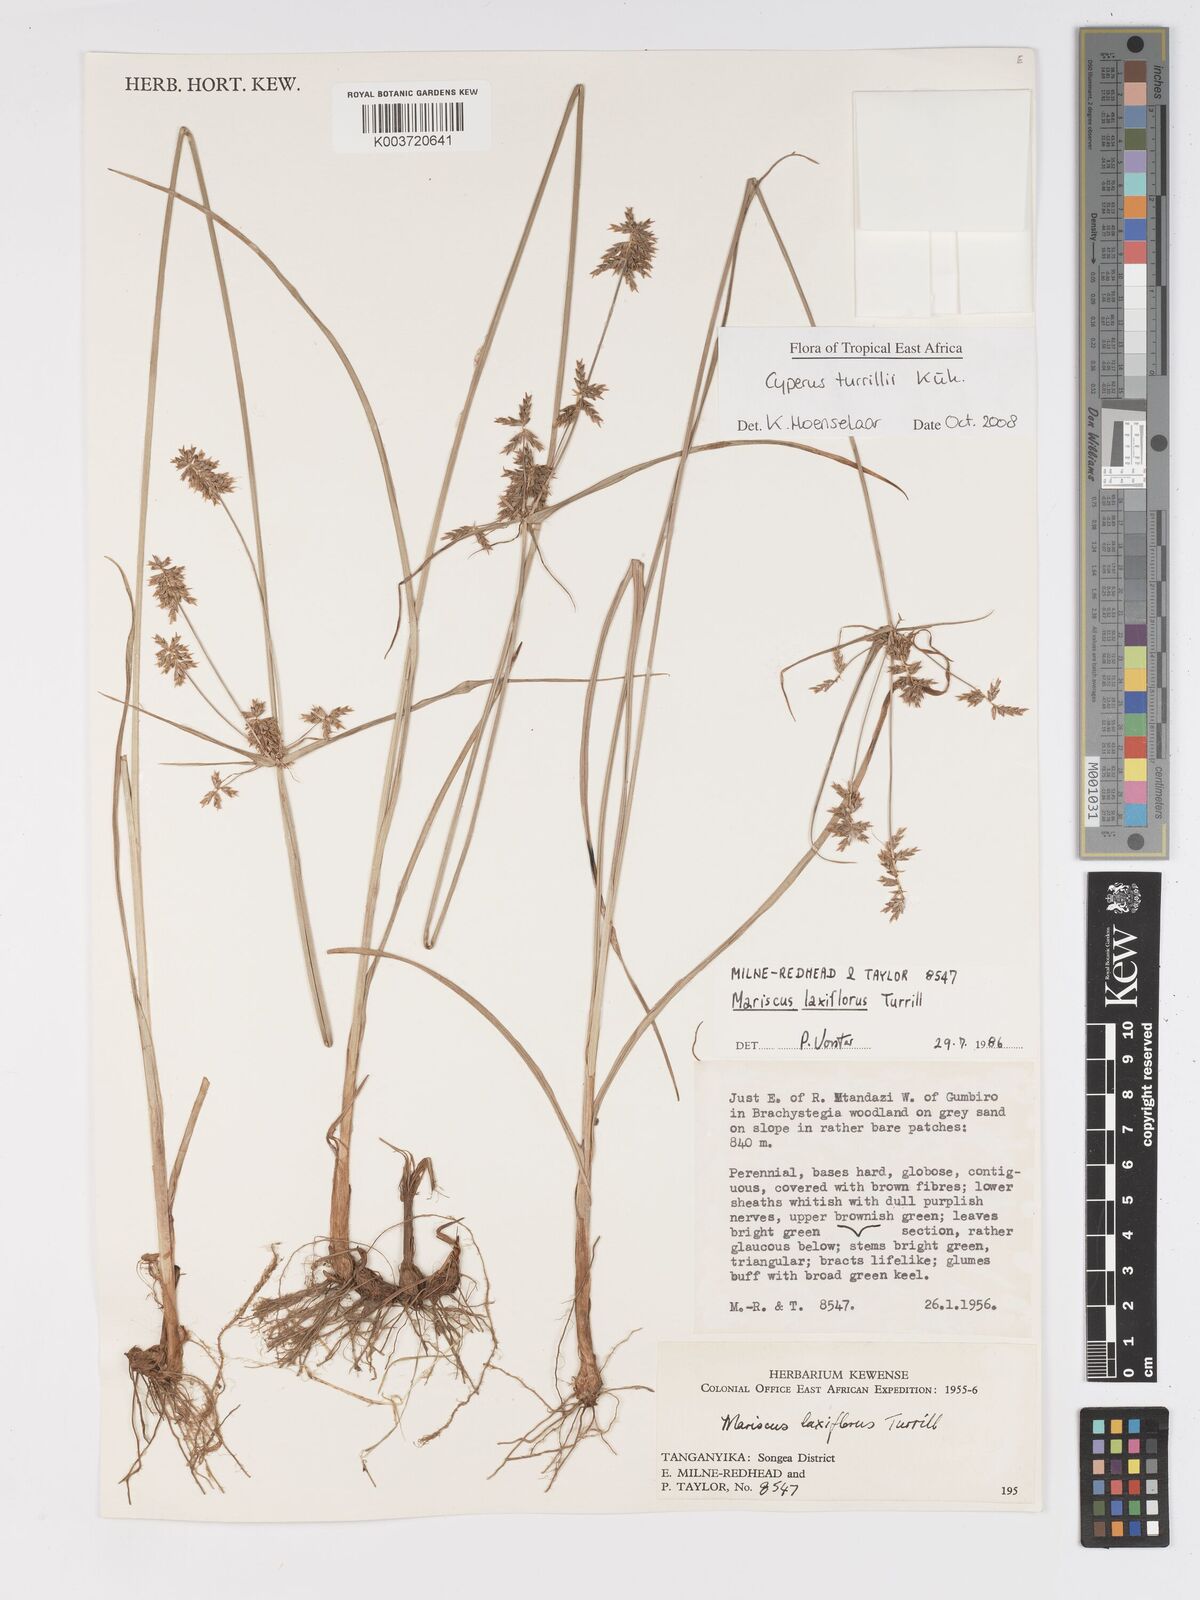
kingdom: Plantae
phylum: Tracheophyta
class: Liliopsida
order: Poales
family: Cyperaceae
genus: Cyperus
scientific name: Cyperus turrillii
